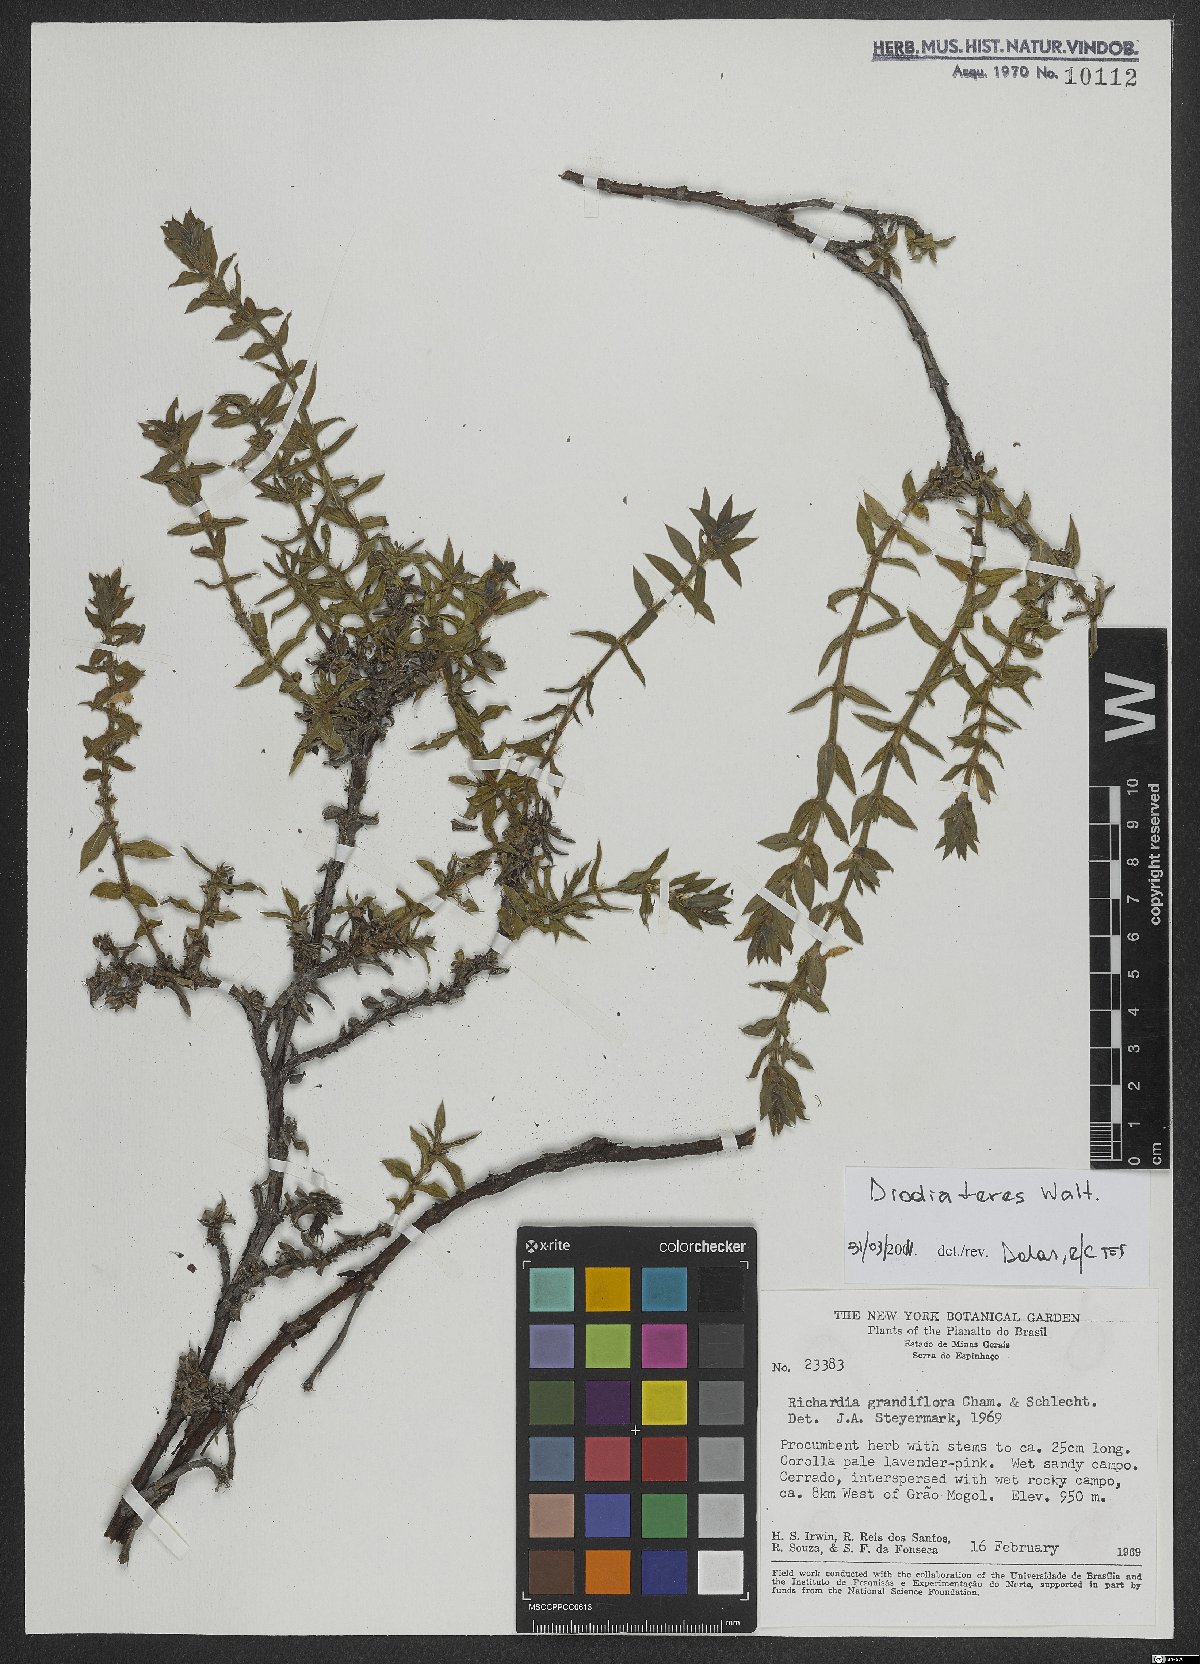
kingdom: Plantae
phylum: Tracheophyta
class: Magnoliopsida
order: Gentianales
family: Rubiaceae
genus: Hexasepalum
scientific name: Hexasepalum teres
